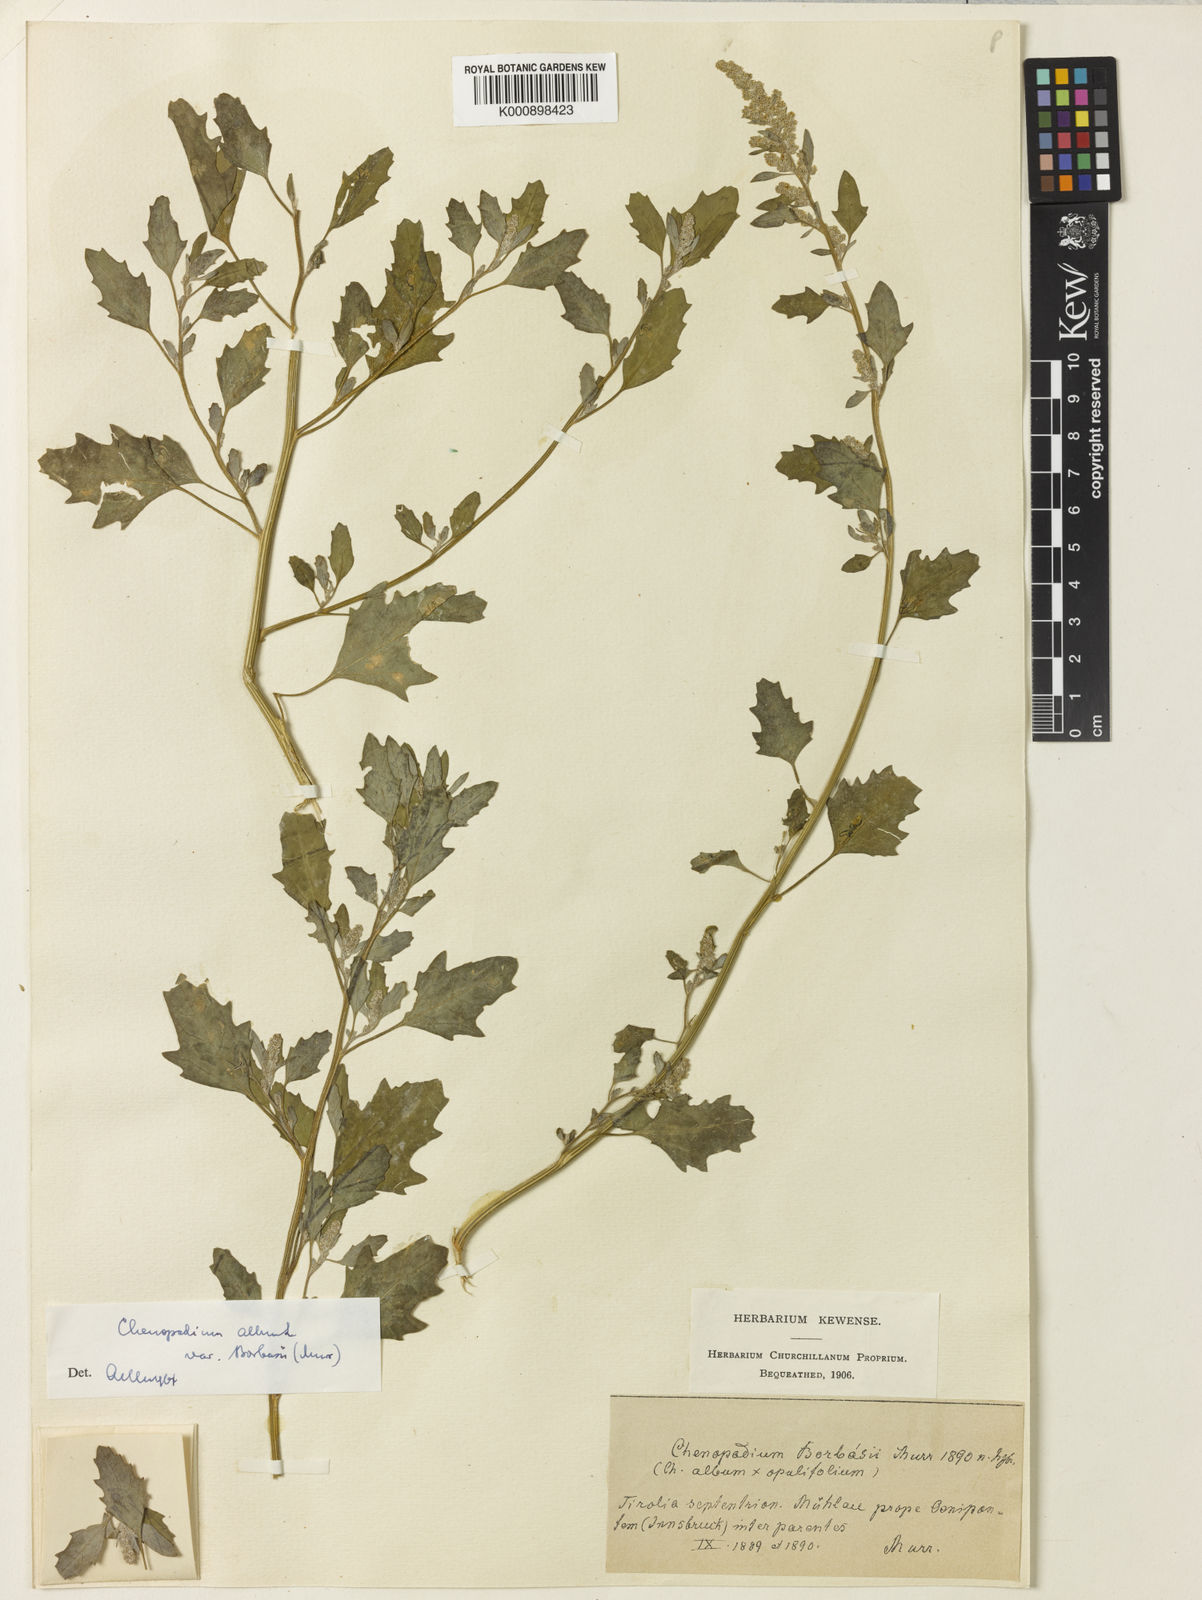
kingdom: Plantae
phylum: Tracheophyta
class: Magnoliopsida
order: Caryophyllales
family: Amaranthaceae
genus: Chenopodium
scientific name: Chenopodium album
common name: Fat-hen
